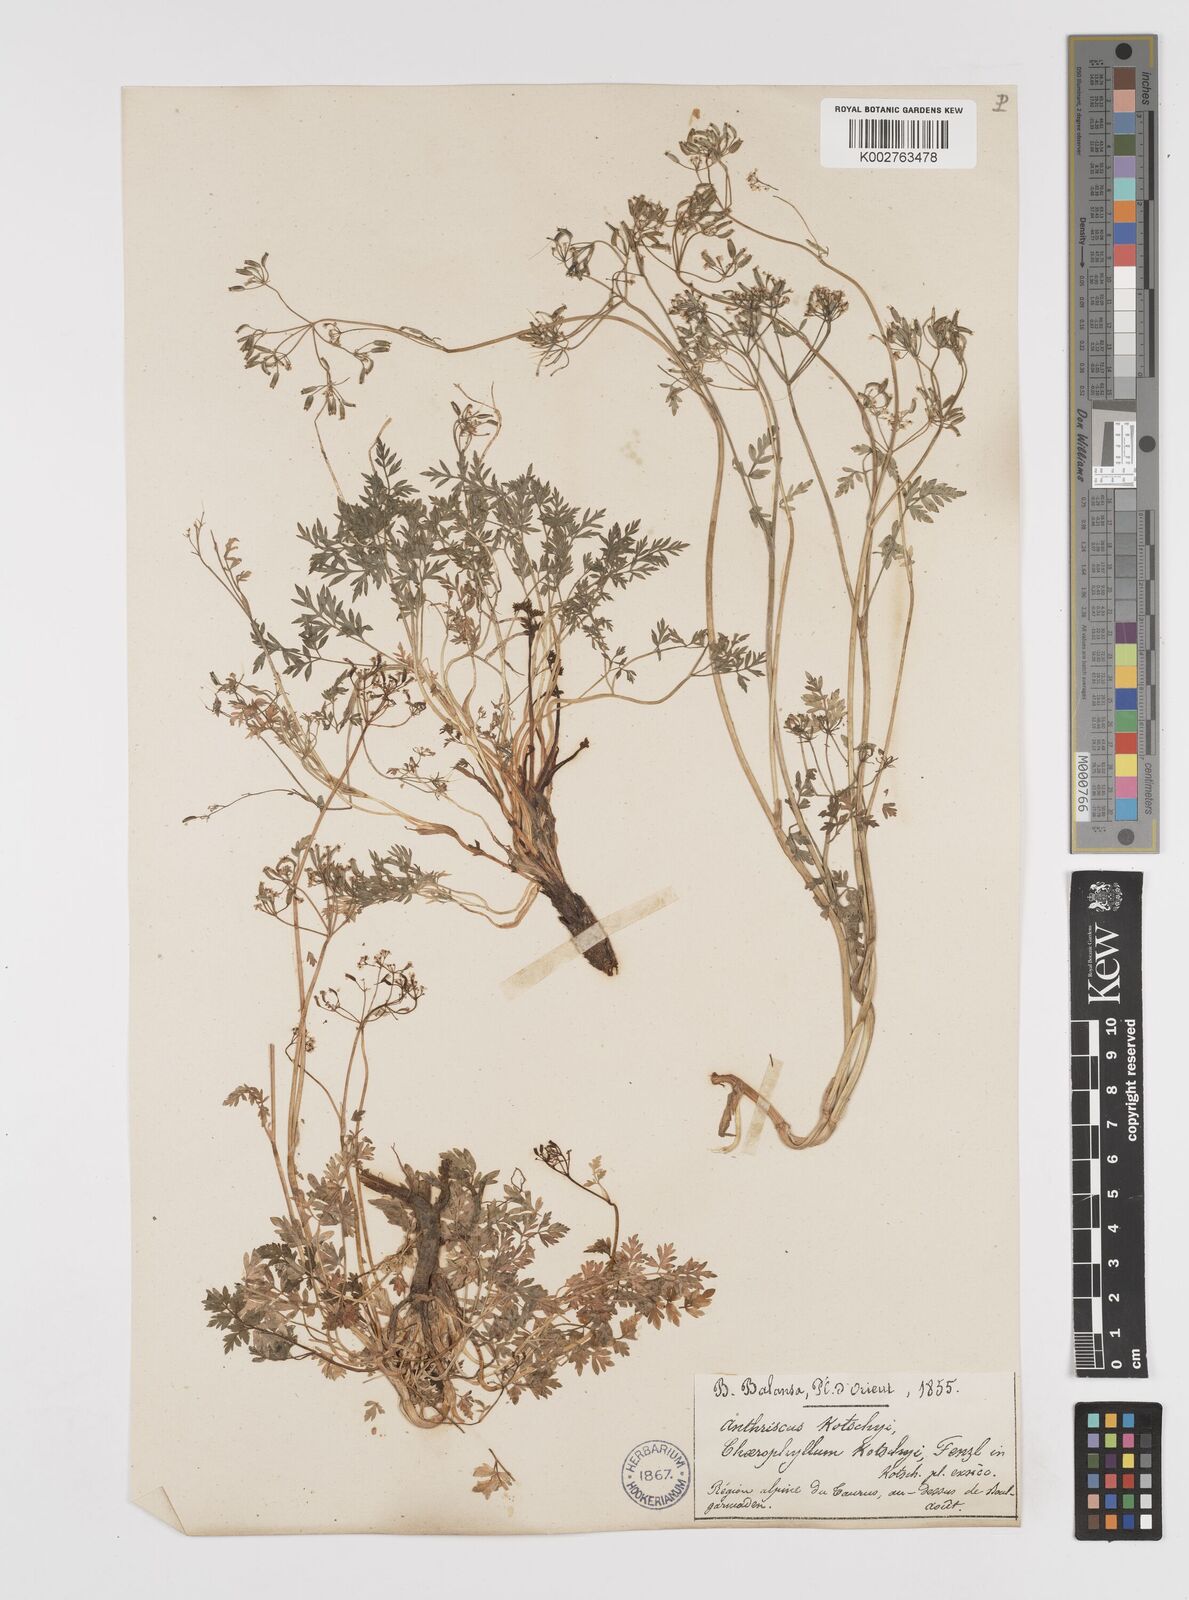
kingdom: Plantae
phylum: Tracheophyta
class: Magnoliopsida
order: Apiales
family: Apiaceae
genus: Anthriscus
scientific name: Anthriscus kotschyi
